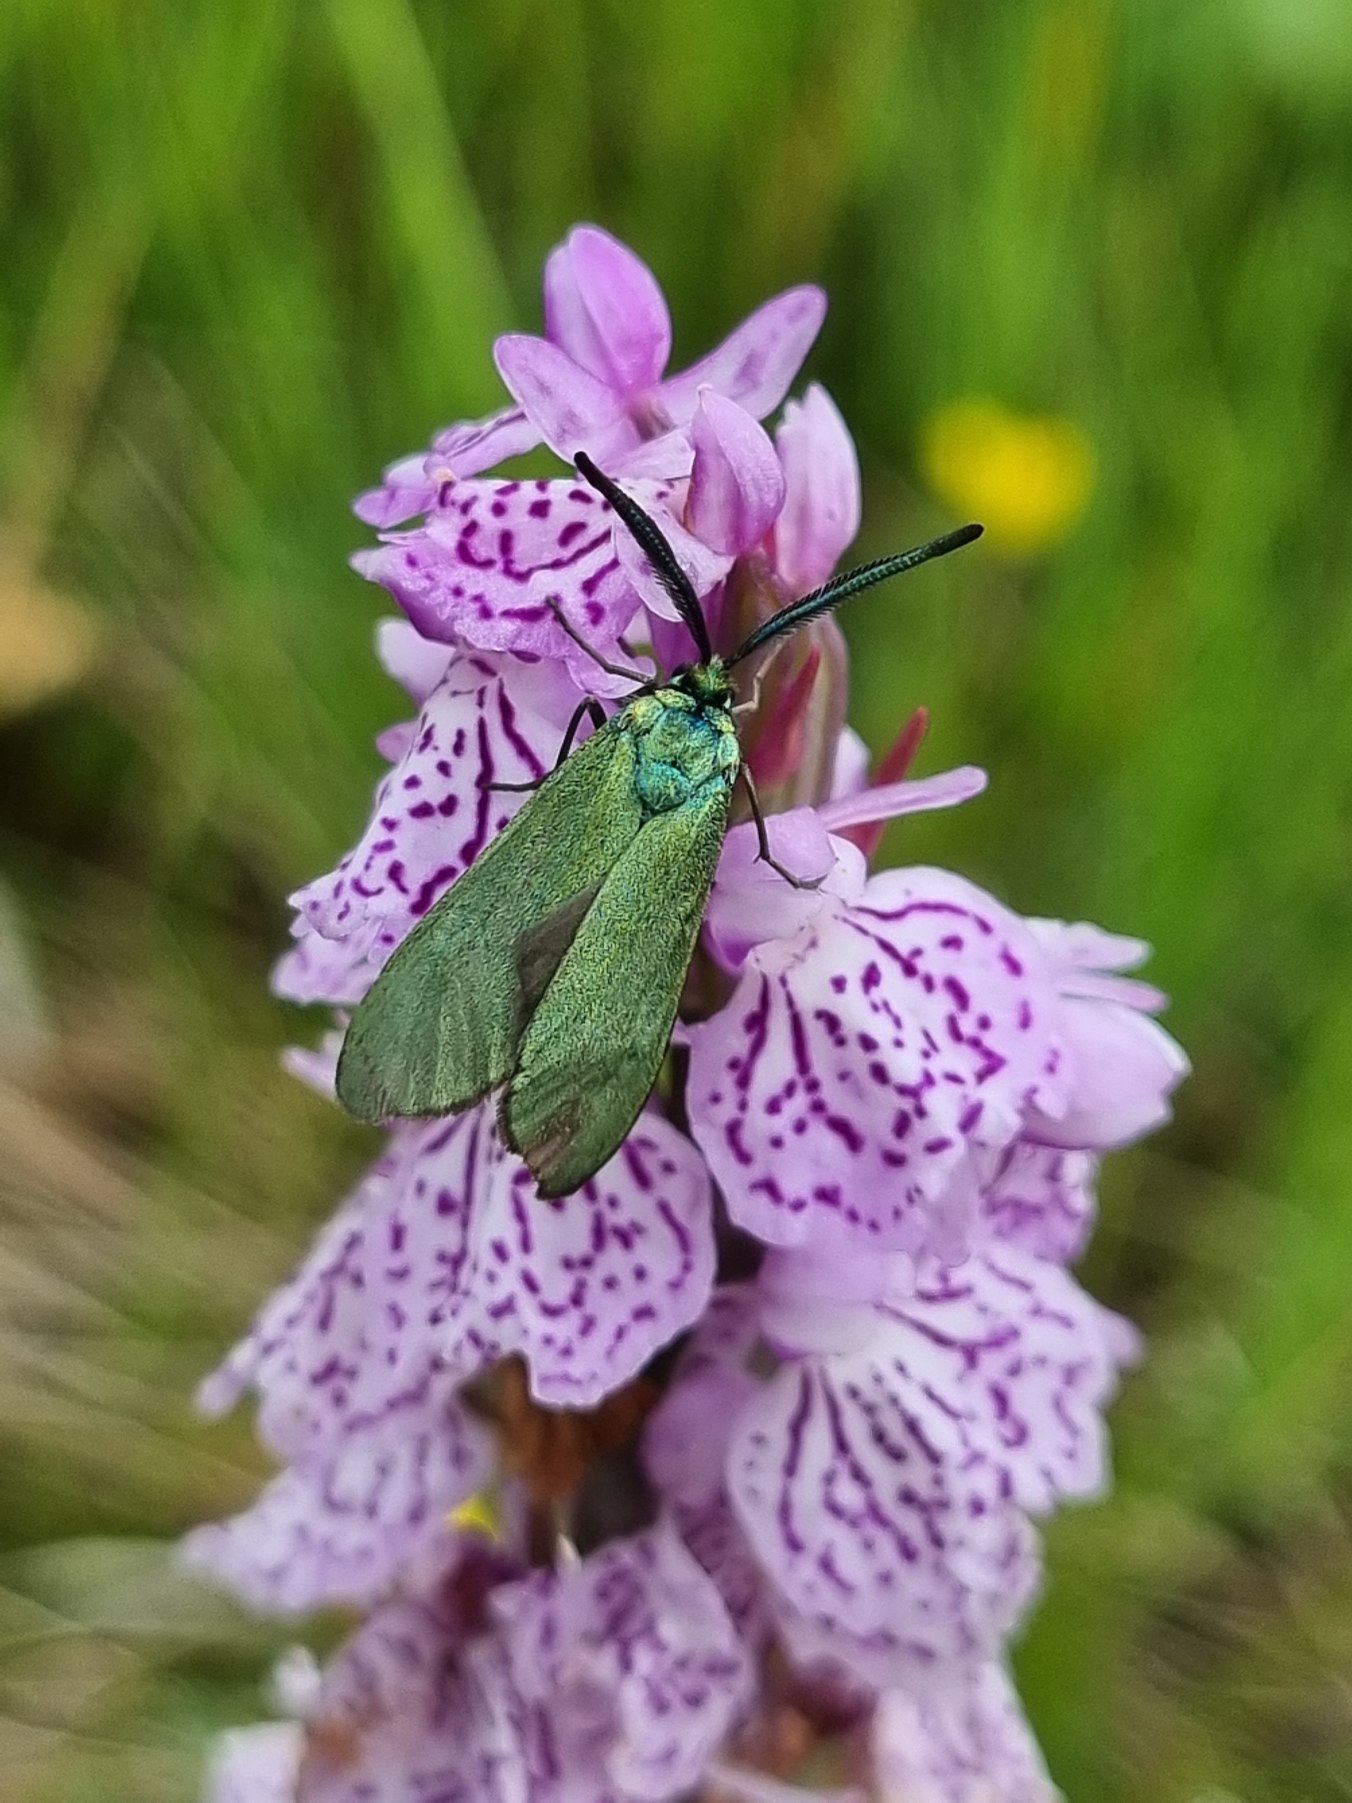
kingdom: Animalia
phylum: Arthropoda
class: Insecta
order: Lepidoptera
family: Zygaenidae
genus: Adscita
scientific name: Adscita statices
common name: Metalvinge
